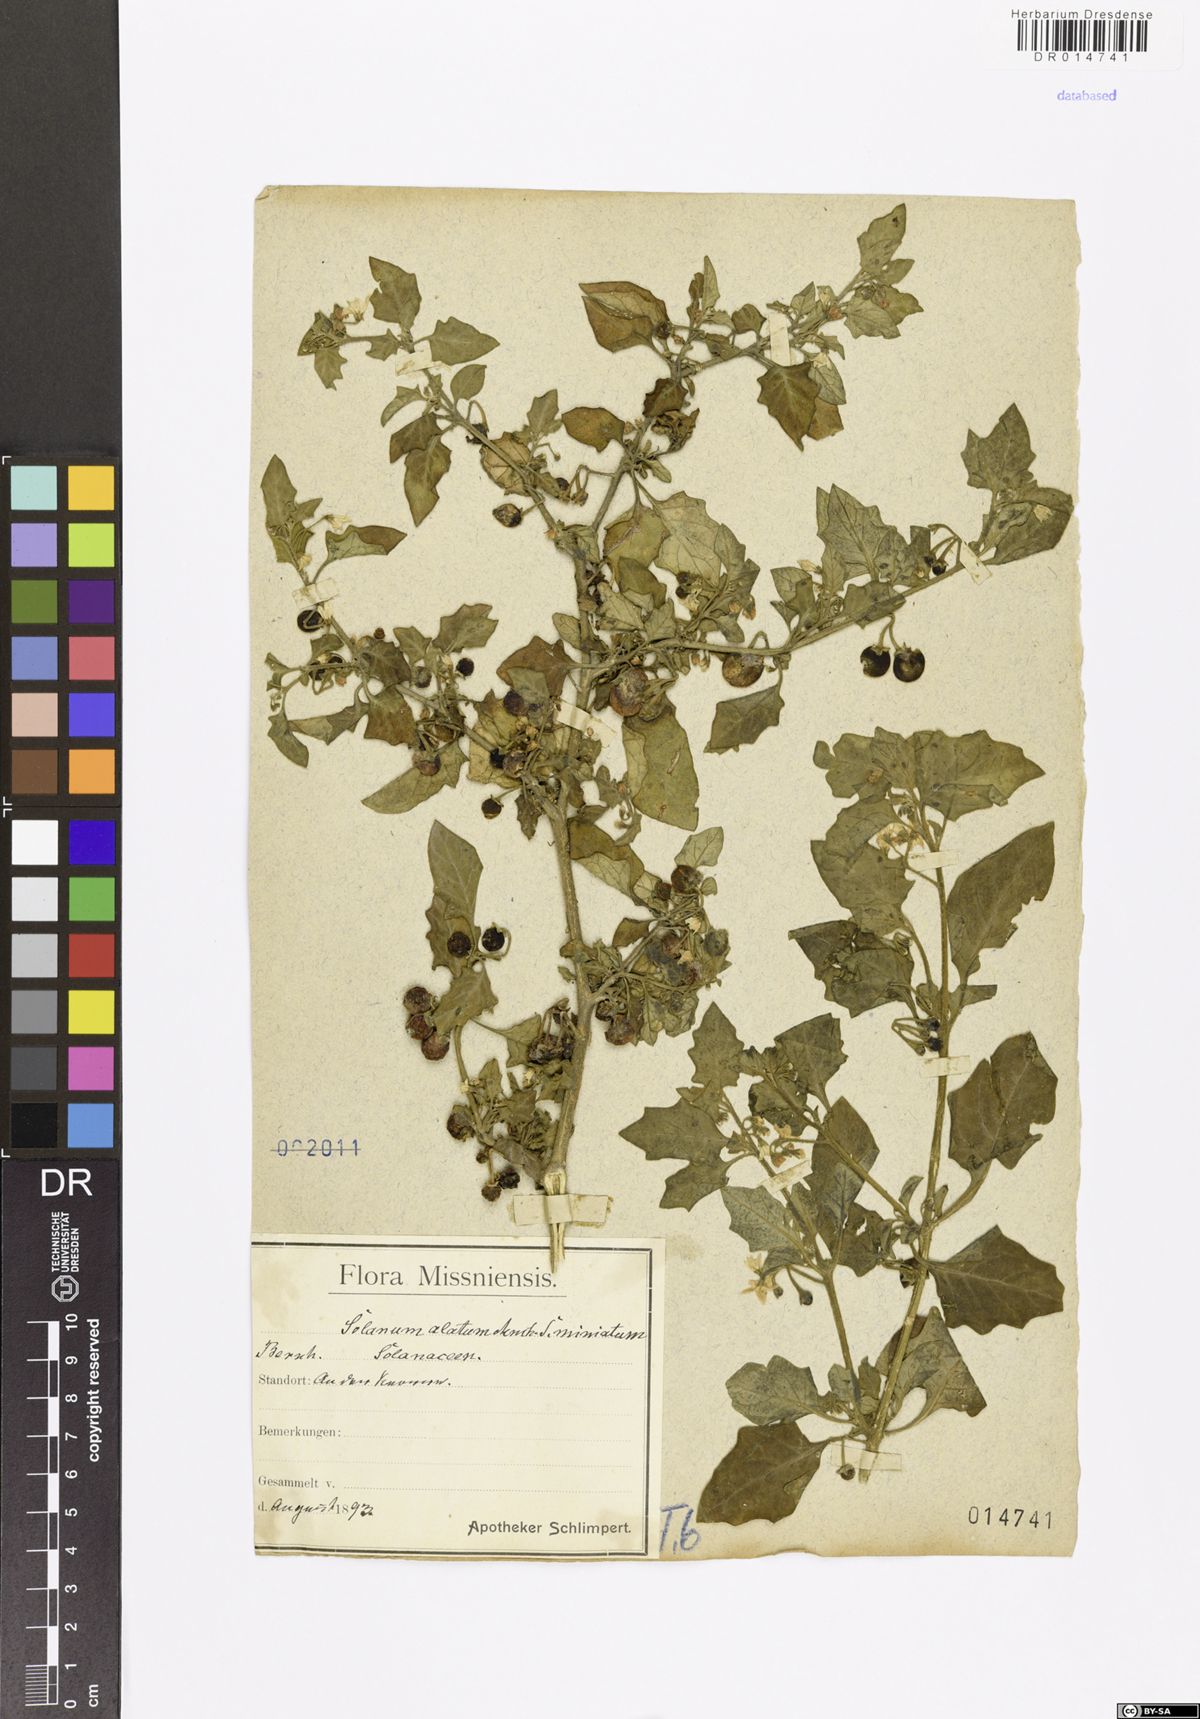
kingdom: Plantae
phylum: Tracheophyta
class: Magnoliopsida
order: Solanales
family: Solanaceae
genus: Solanum
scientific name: Solanum nigrum
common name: Black nightshade
